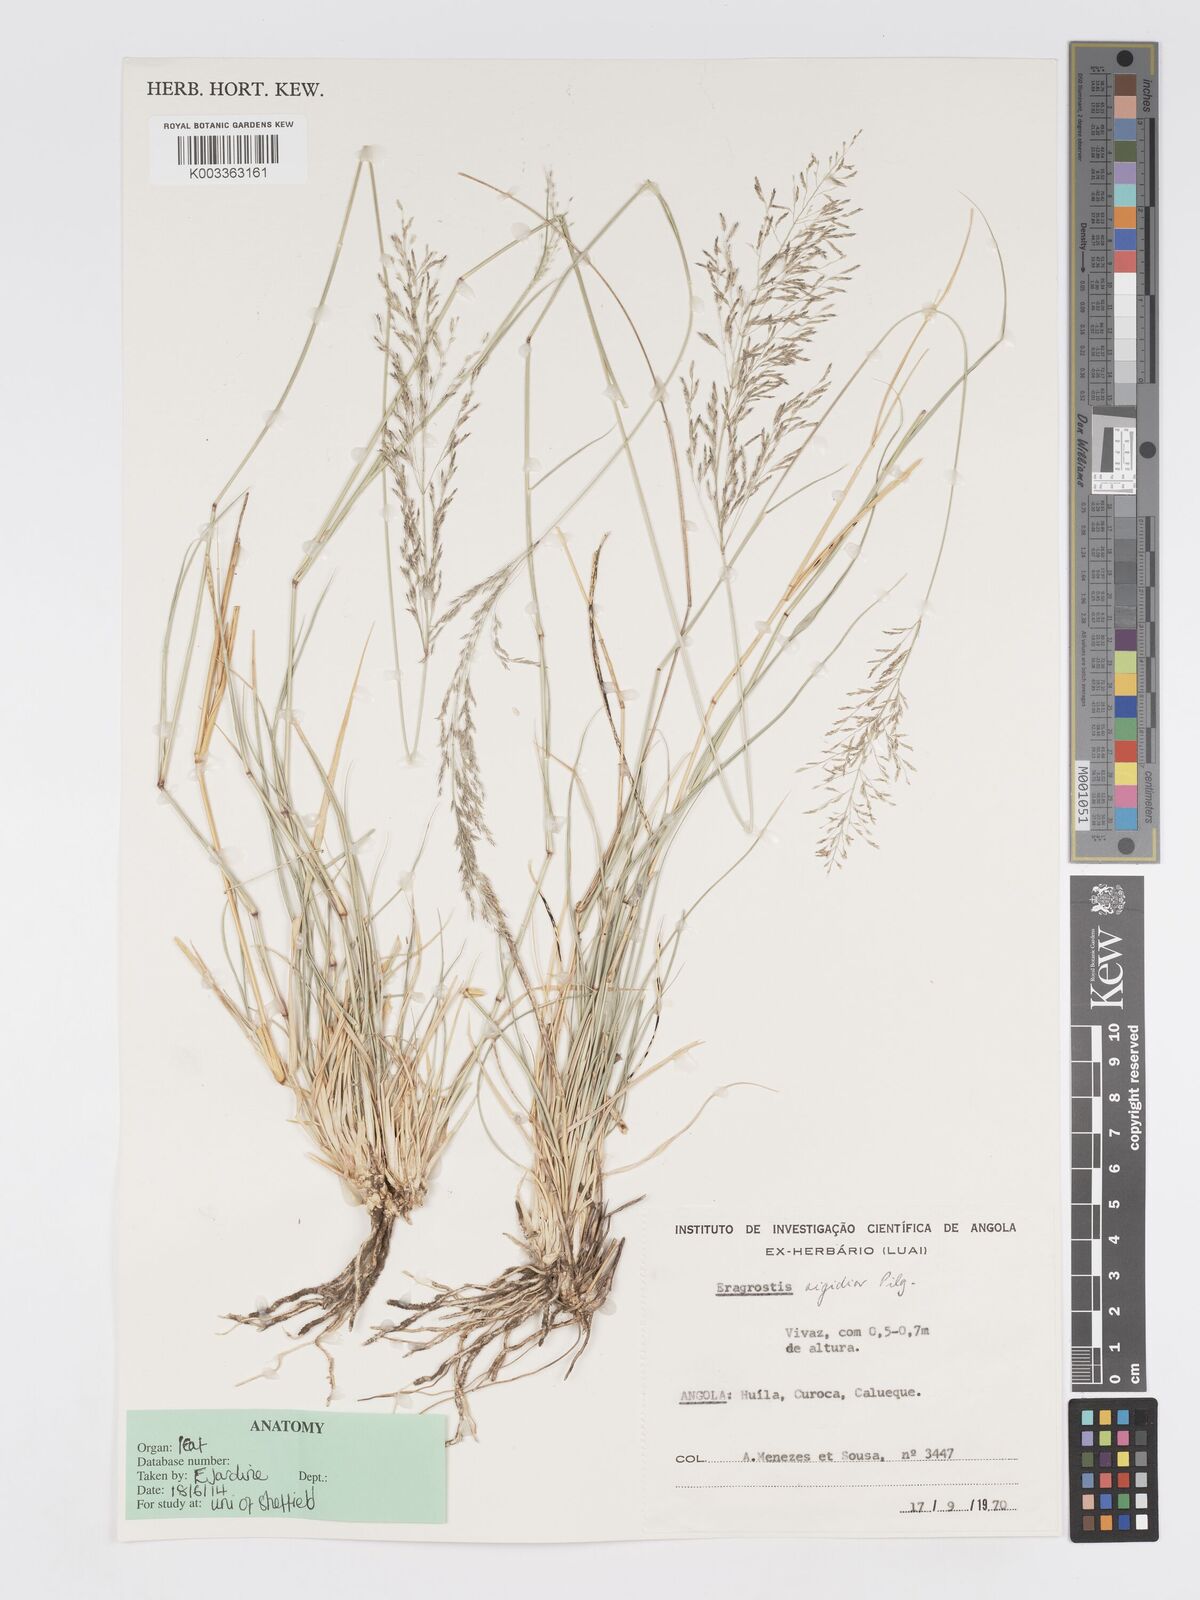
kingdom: Plantae
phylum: Tracheophyta
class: Liliopsida
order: Poales
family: Poaceae
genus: Eragrostis
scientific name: Eragrostis cylindriflora
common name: Cylinderflower lovegrass
